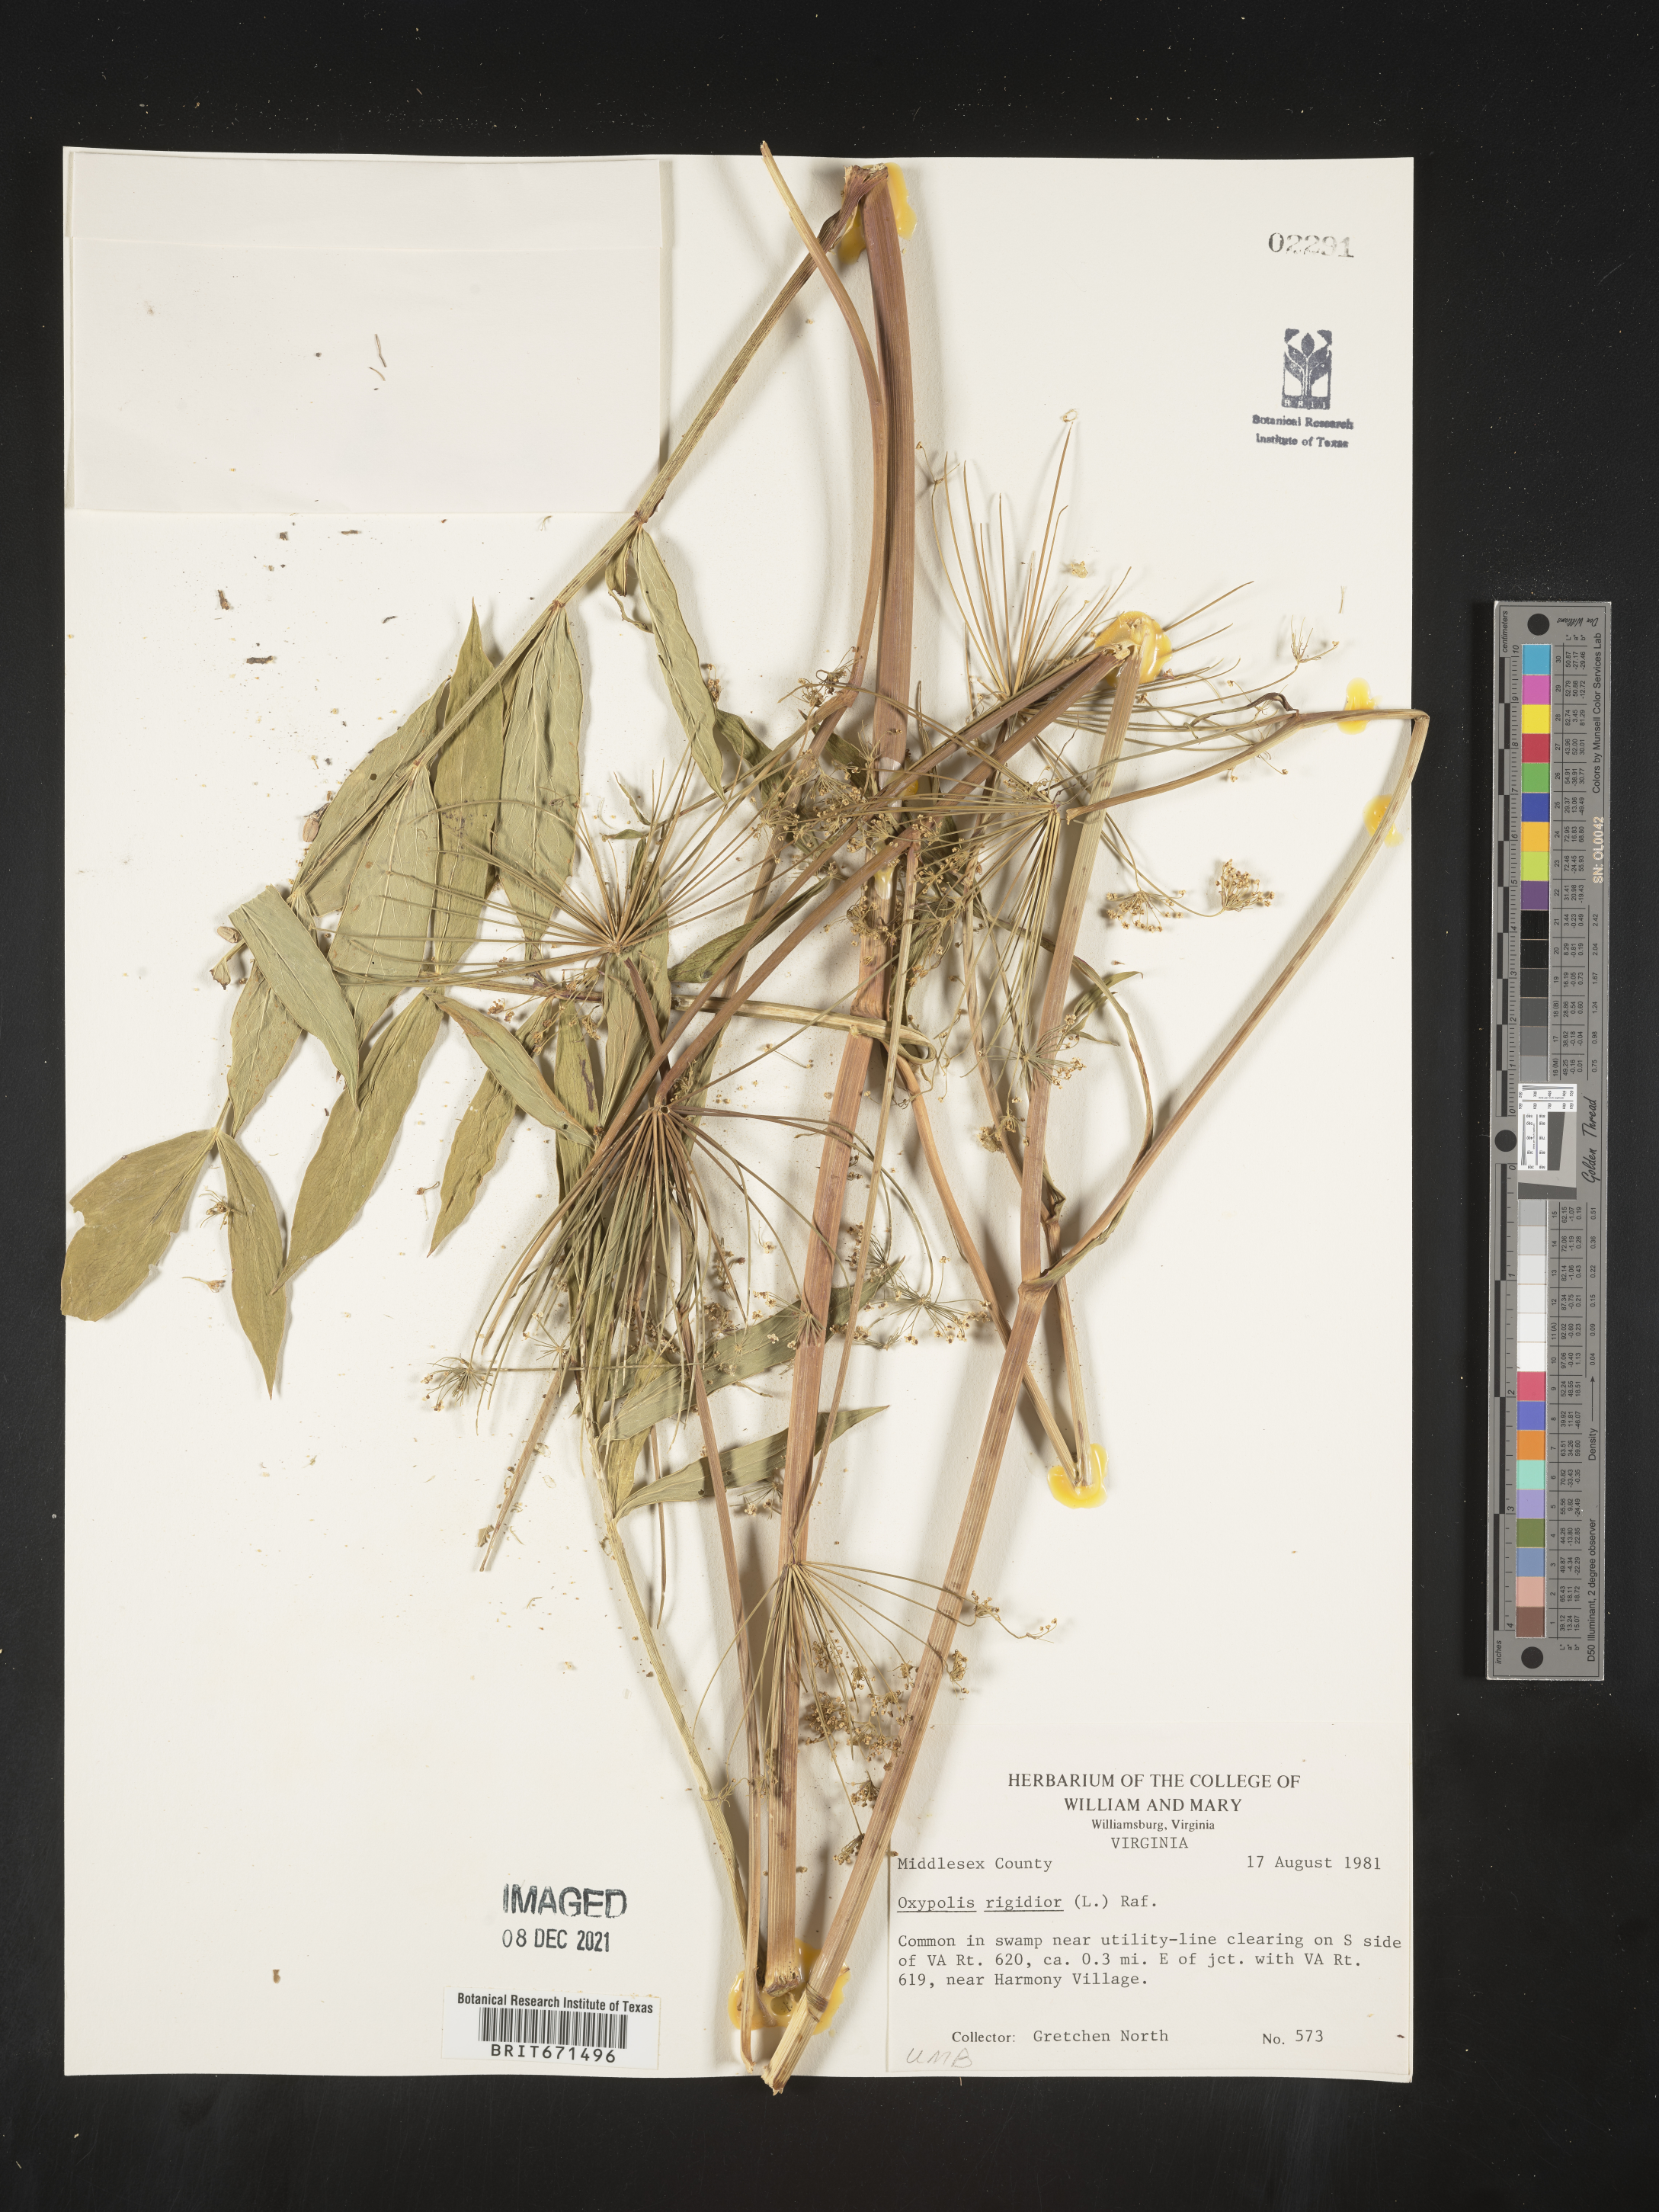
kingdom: Plantae
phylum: Tracheophyta
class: Magnoliopsida
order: Apiales
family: Apiaceae
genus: Oxypolis
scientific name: Oxypolis rigidior
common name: Cowbane
